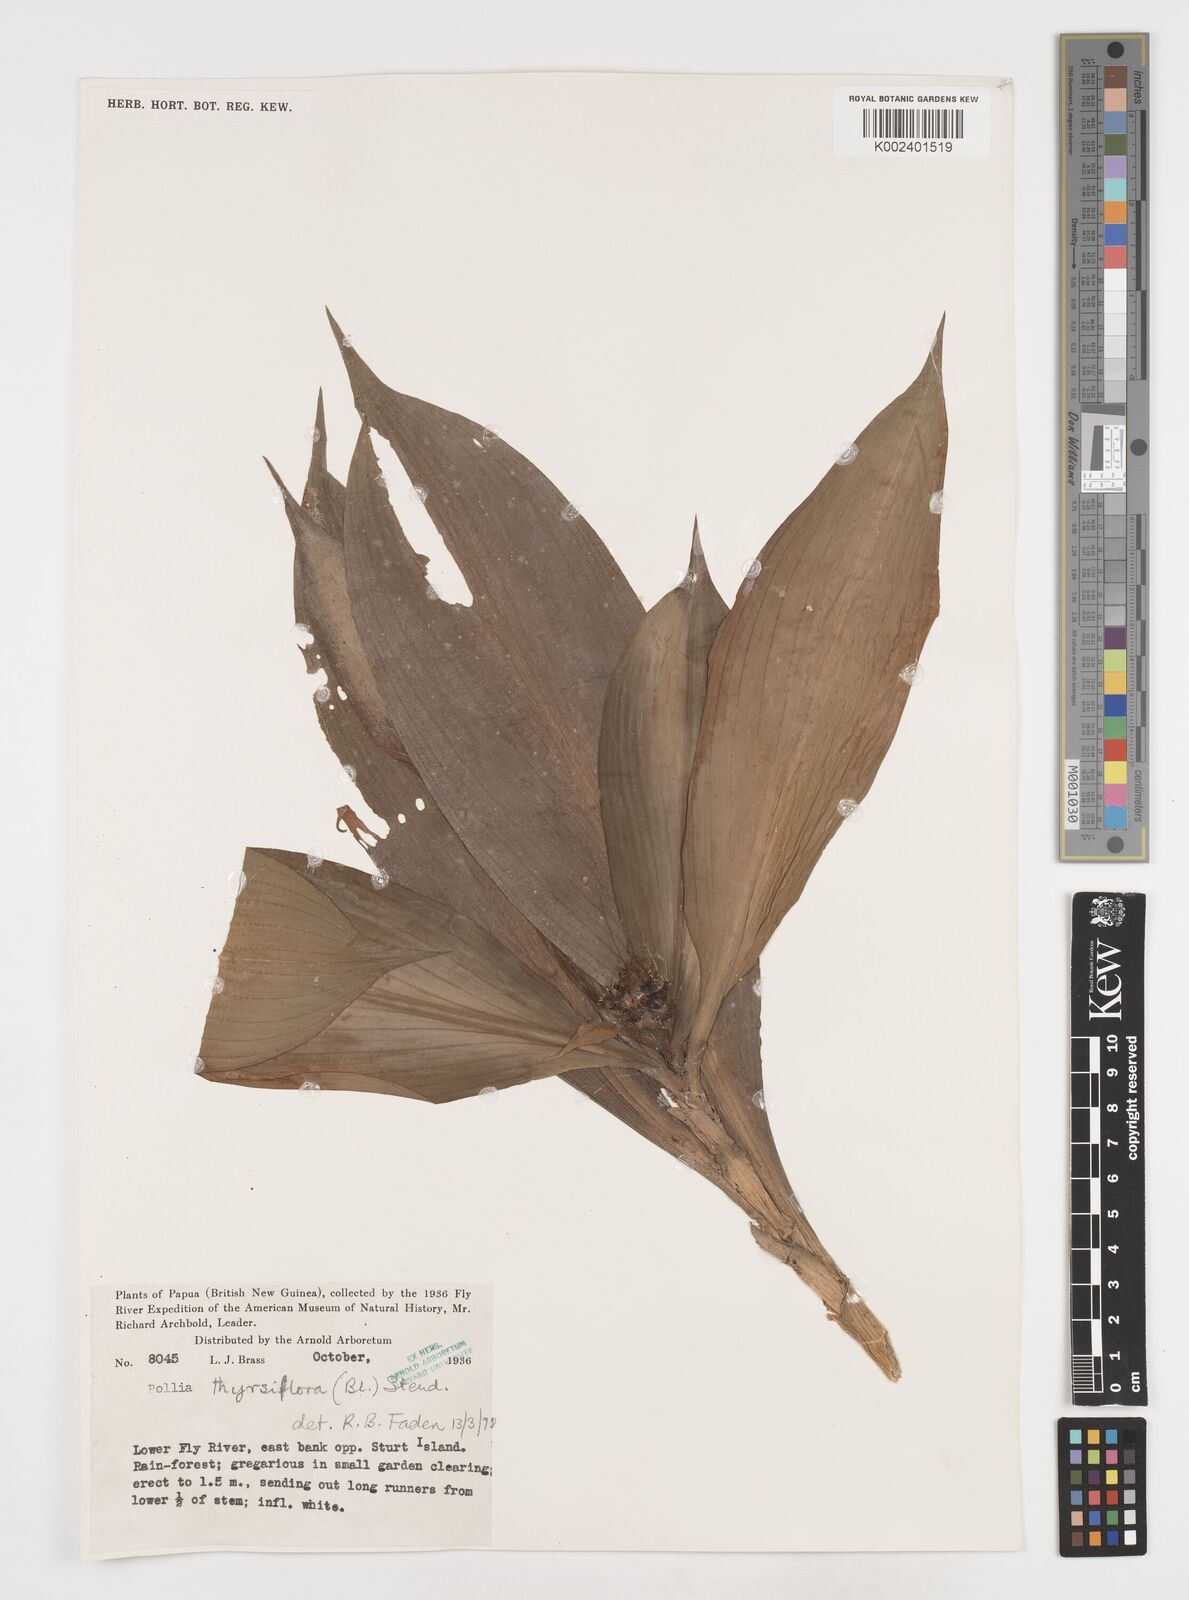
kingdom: Plantae
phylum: Tracheophyta
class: Liliopsida
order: Commelinales
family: Commelinaceae
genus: Pollia
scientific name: Pollia thyrsiflora
